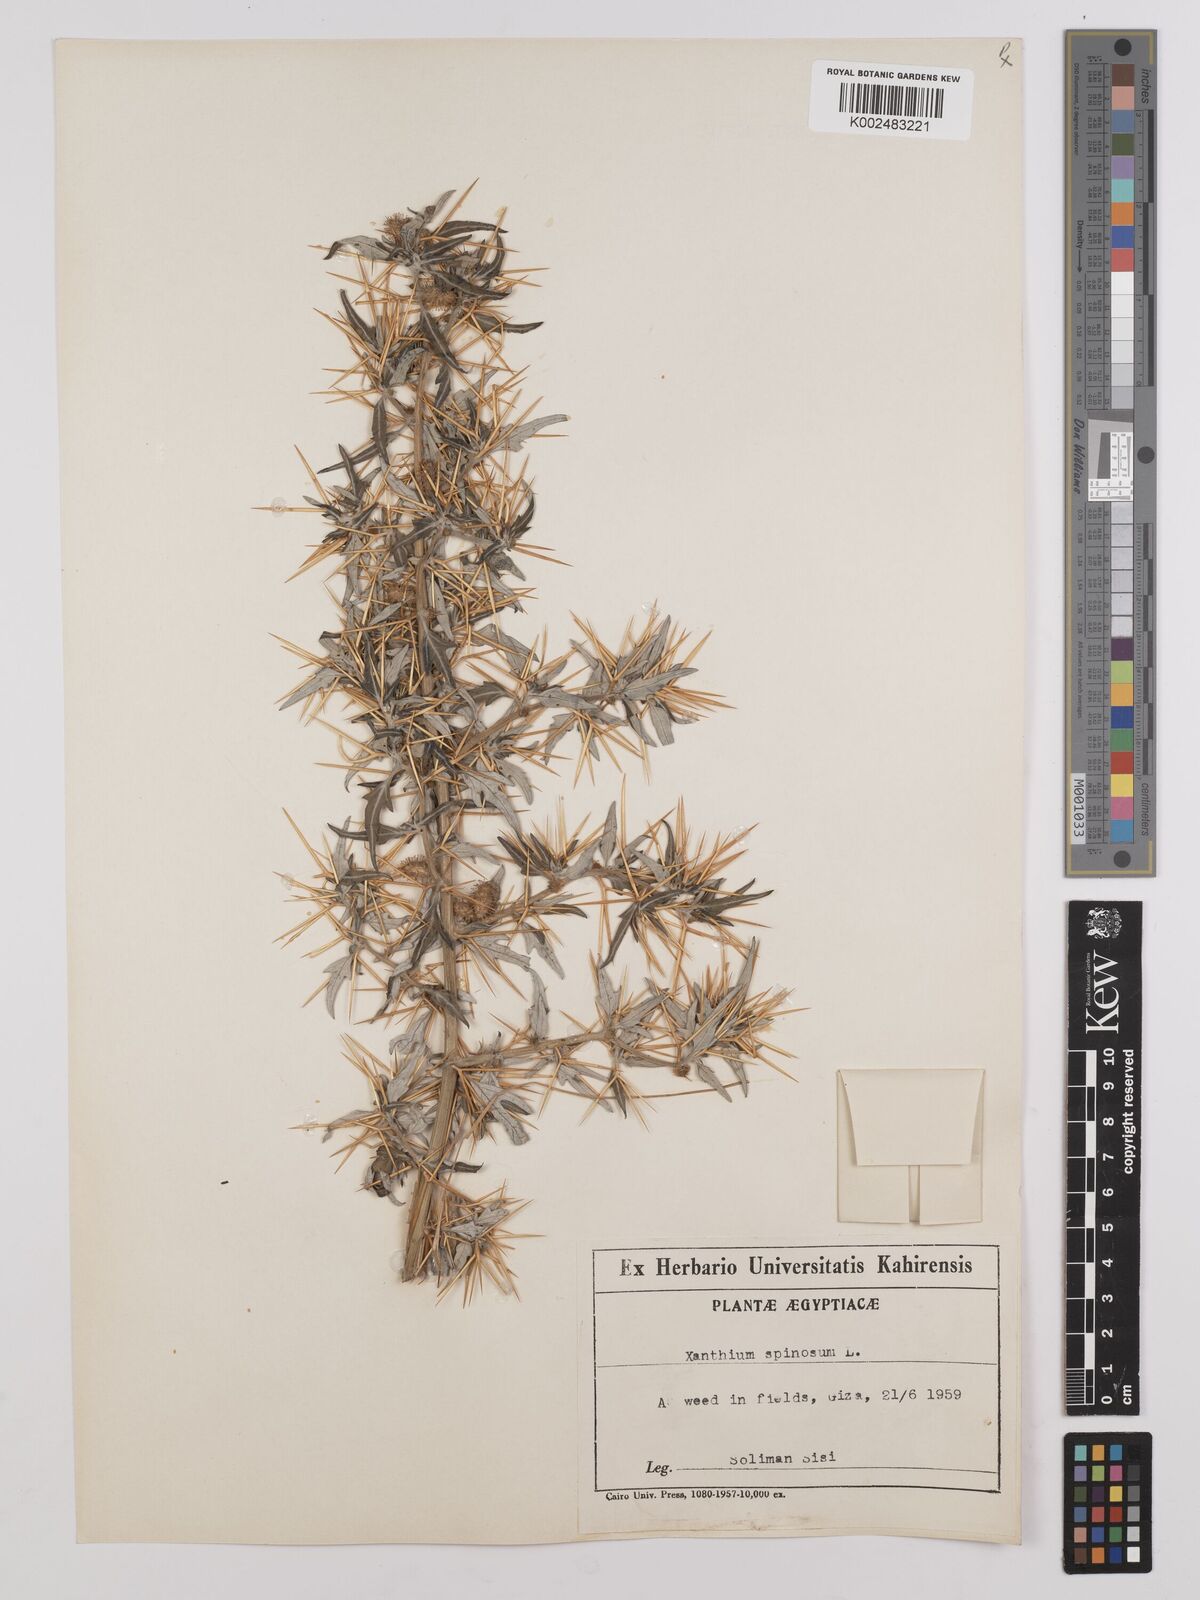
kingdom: Plantae
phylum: Tracheophyta
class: Magnoliopsida
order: Asterales
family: Asteraceae
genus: Xanthium
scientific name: Xanthium spinosum
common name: Spiny cocklebur
